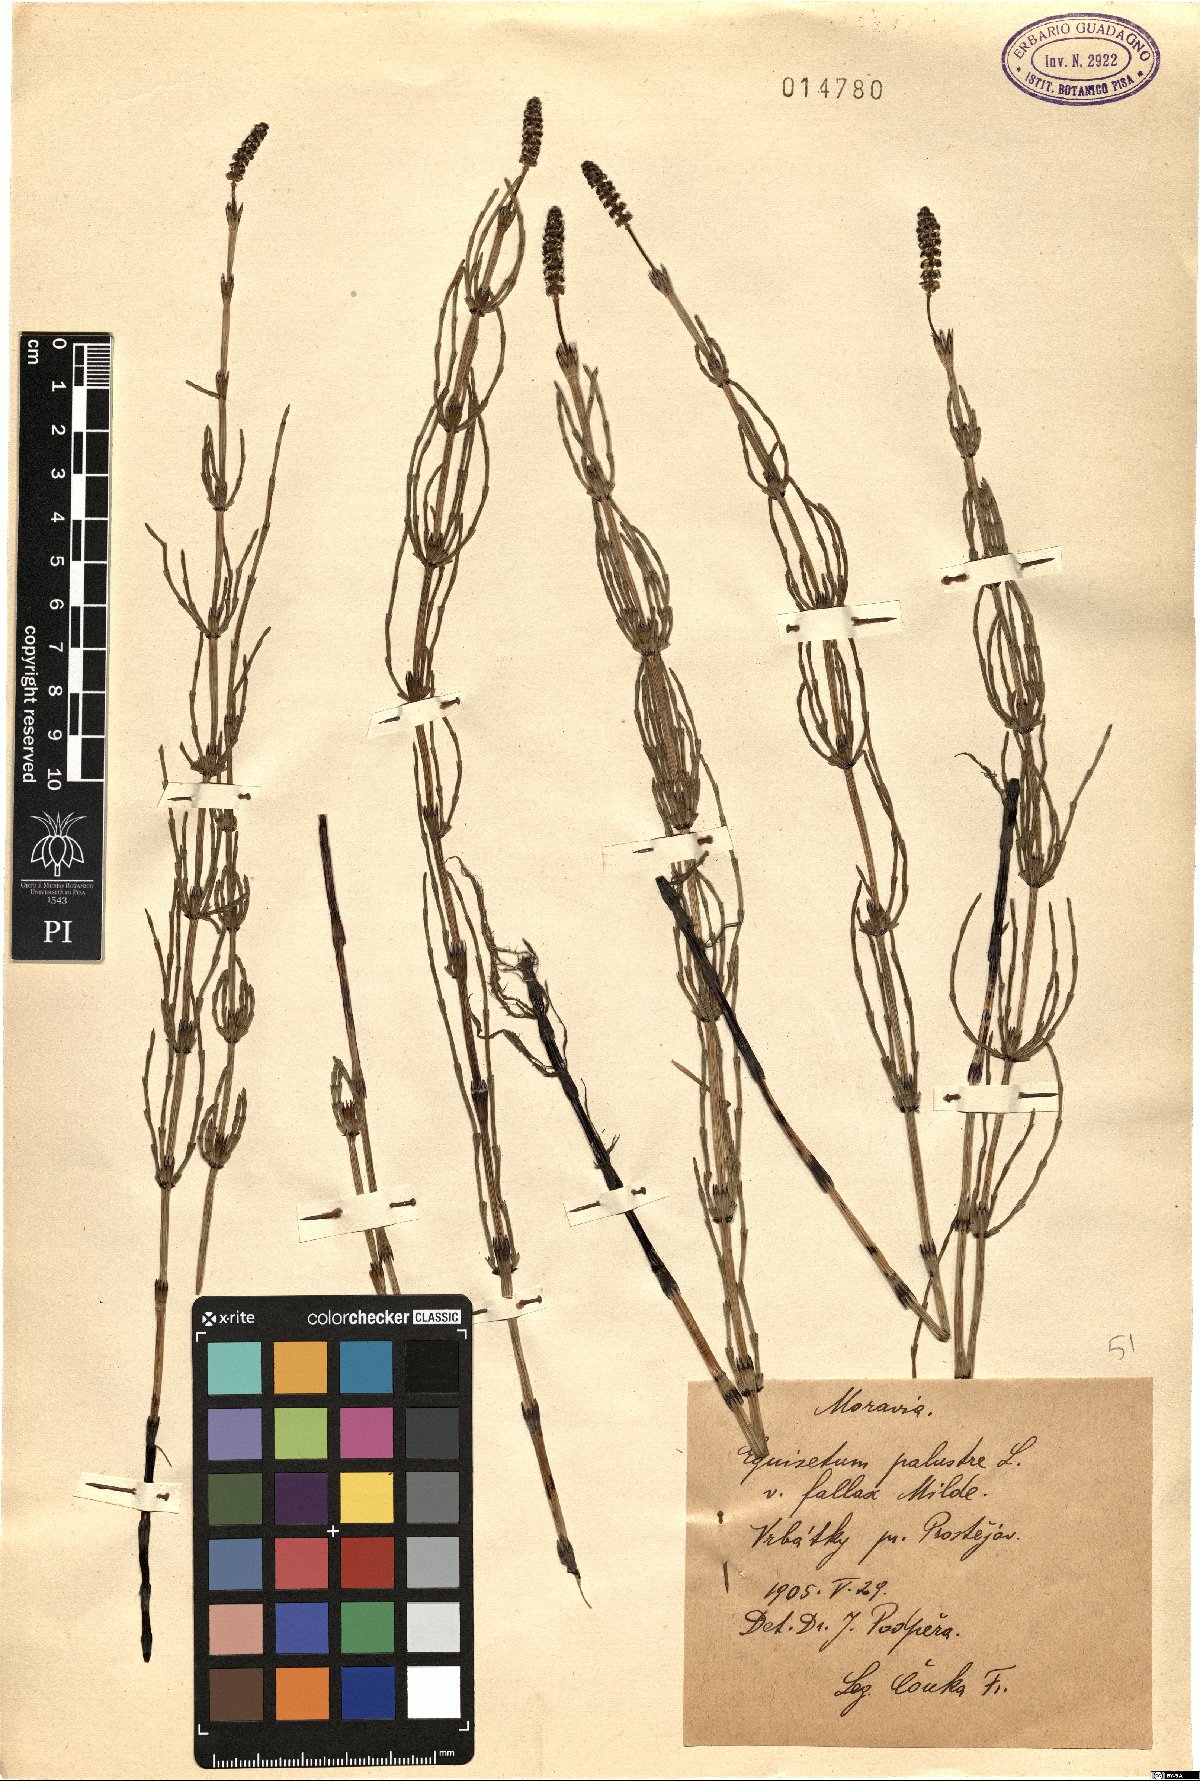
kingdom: Plantae
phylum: Tracheophyta
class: Polypodiopsida
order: Equisetales
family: Equisetaceae
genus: Equisetum
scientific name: Equisetum palustre
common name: Marsh horsetail
